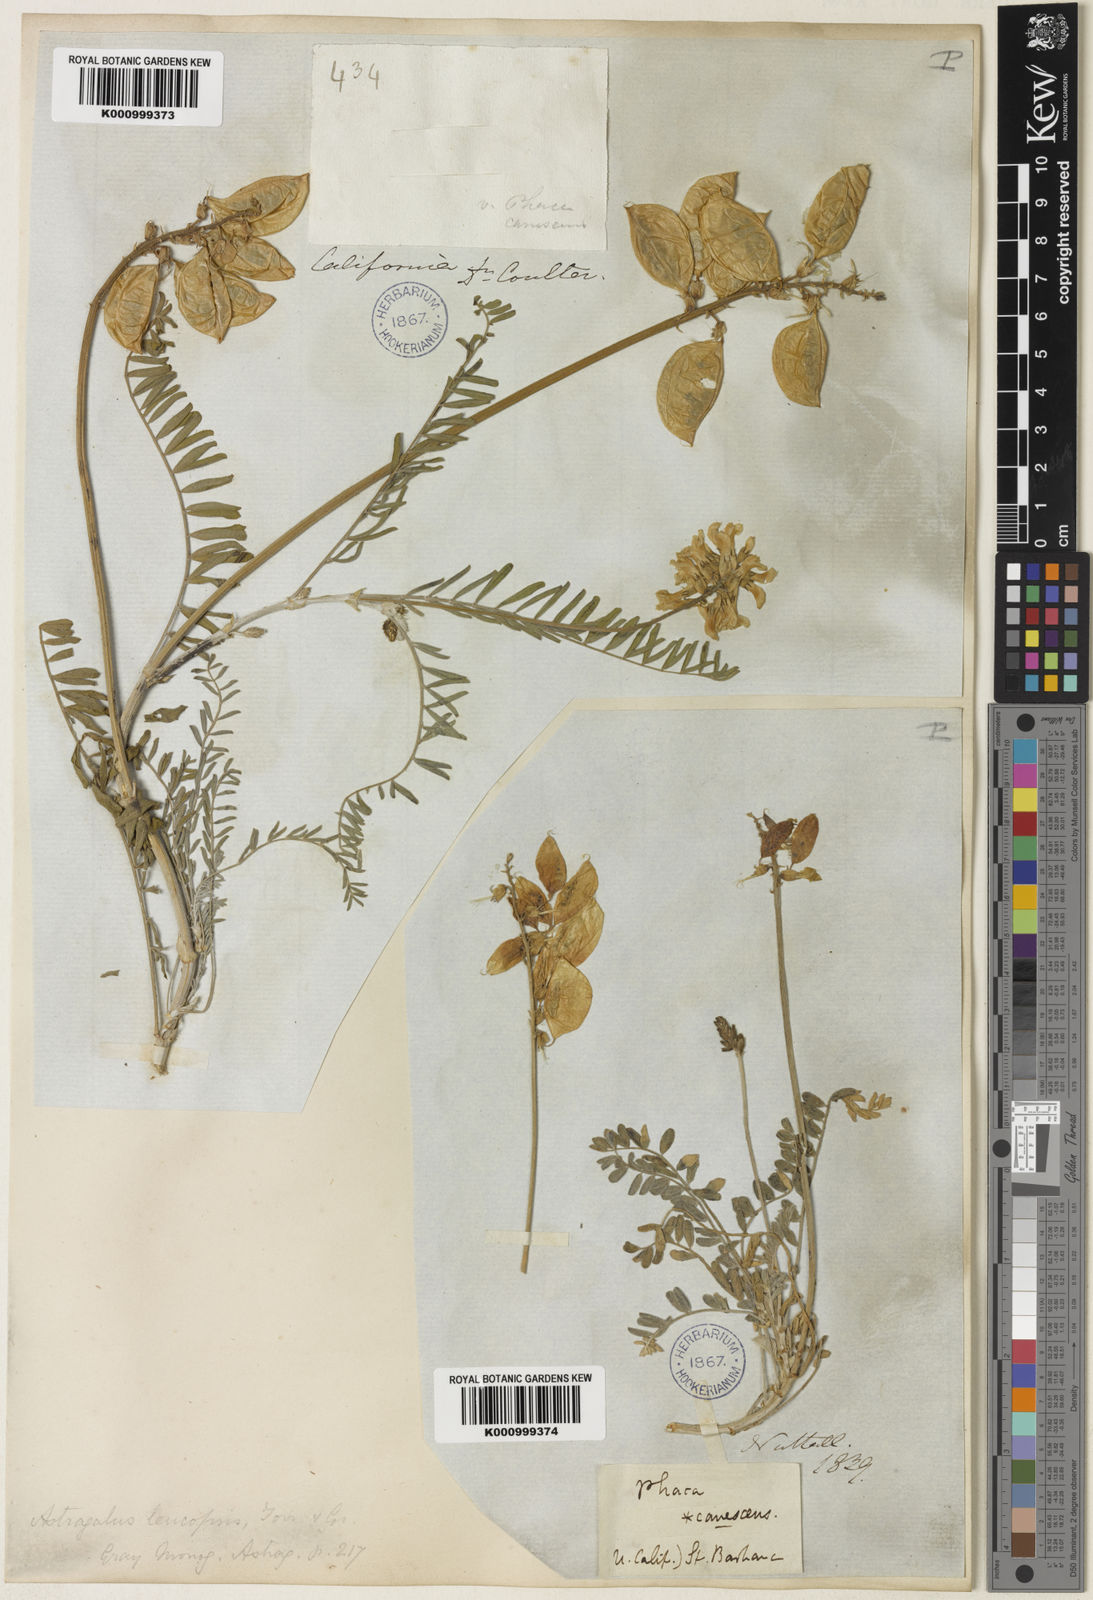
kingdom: Plantae
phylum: Tracheophyta
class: Magnoliopsida
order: Fabales
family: Fabaceae
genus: Astragalus
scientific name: Astragalus curtipes
